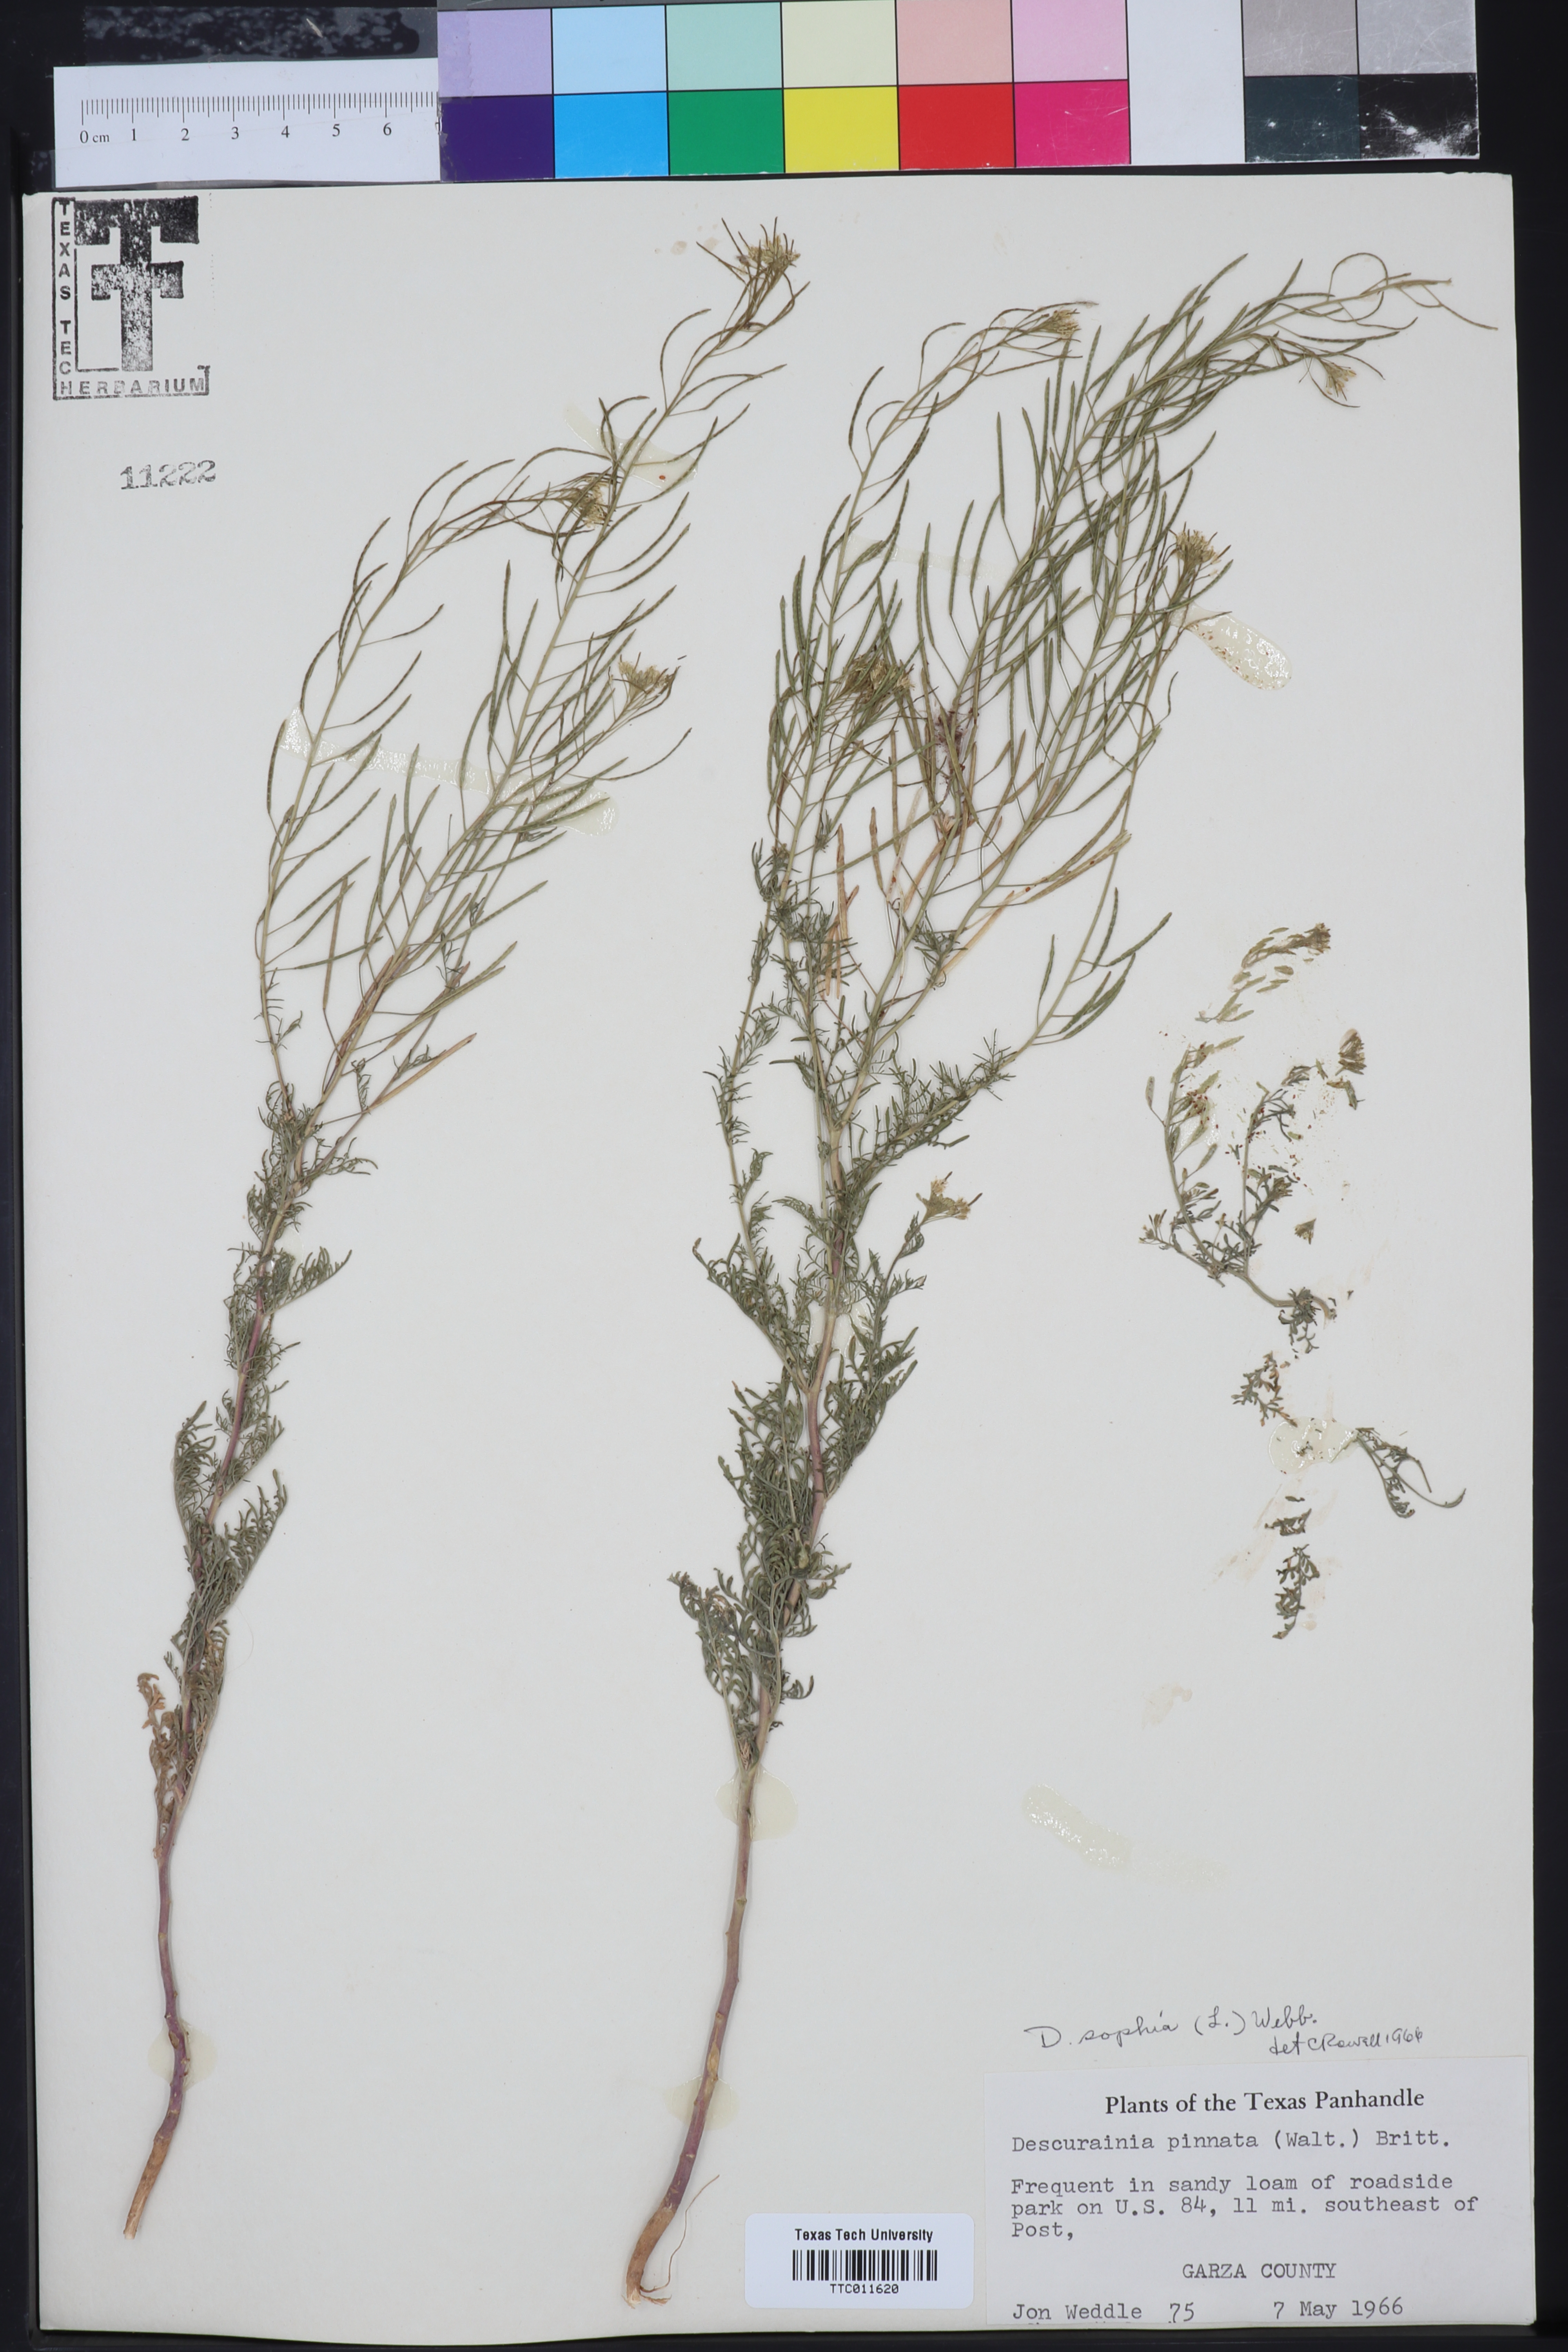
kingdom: Plantae
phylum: Tracheophyta
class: Magnoliopsida
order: Brassicales
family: Brassicaceae
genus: Descurainia
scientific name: Descurainia sophia
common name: Flixweed
